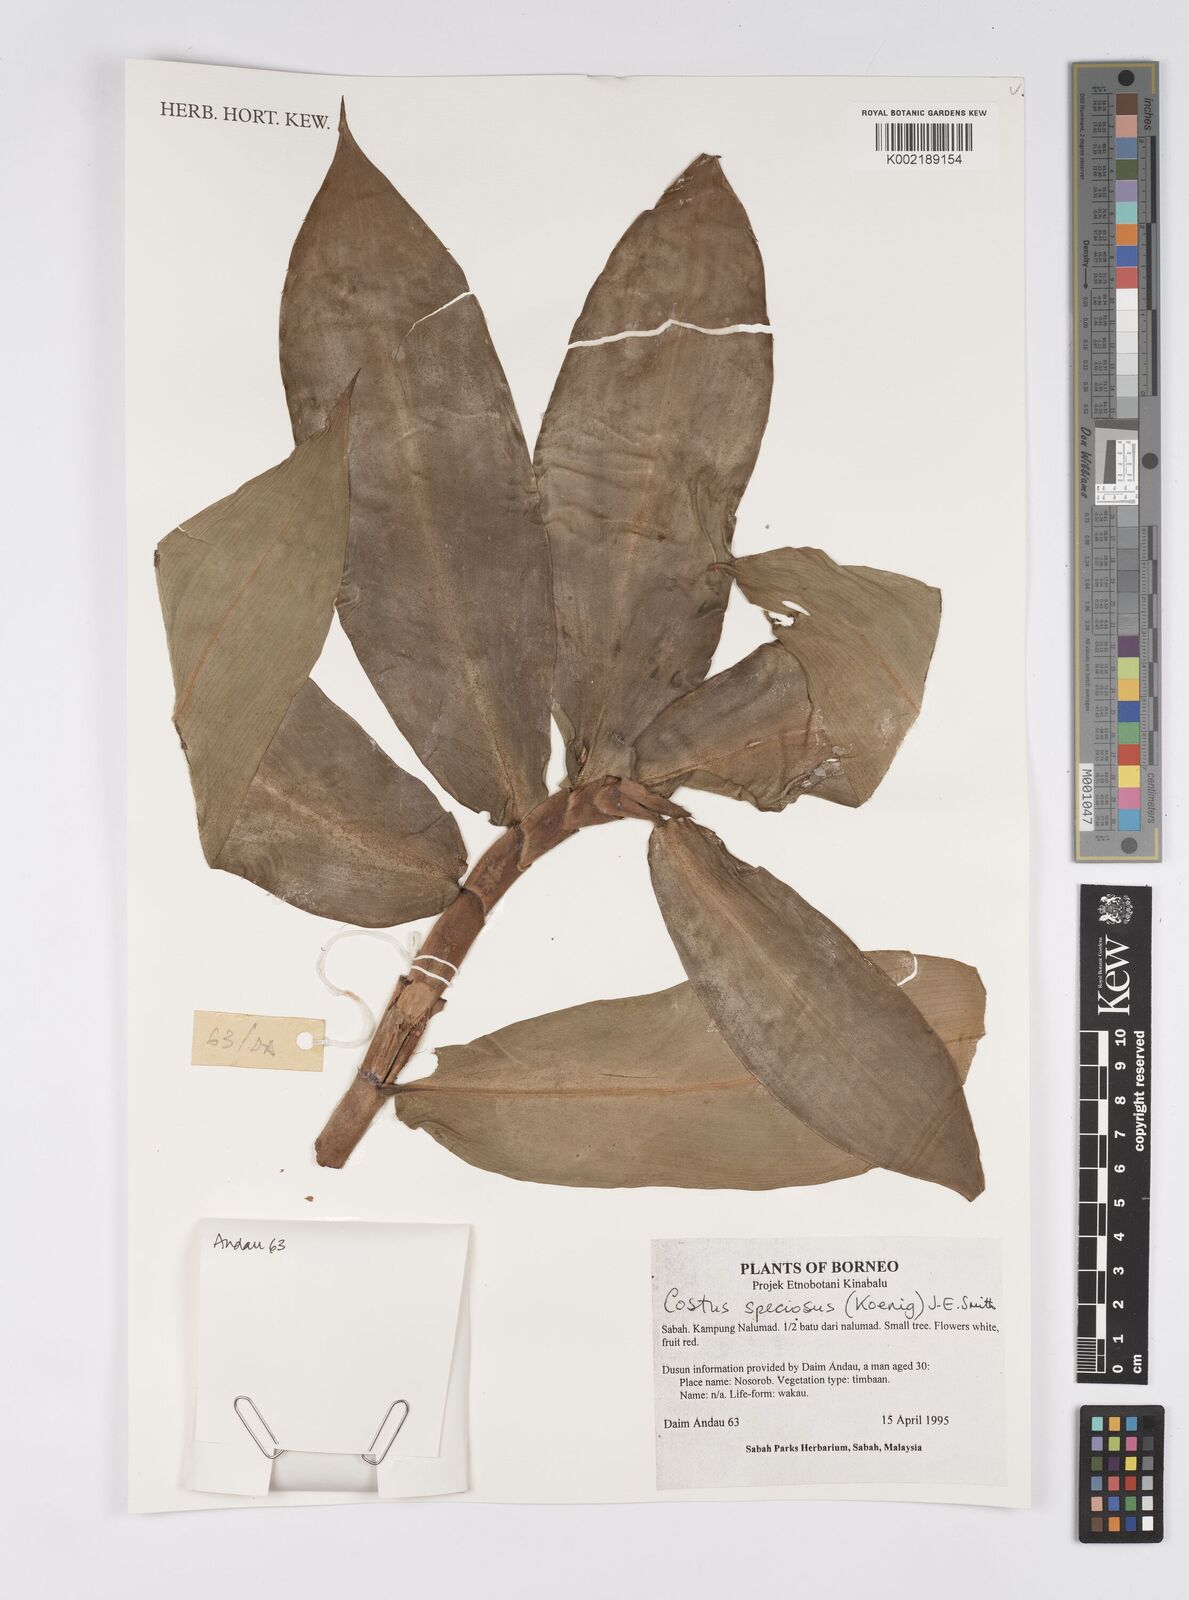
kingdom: Plantae
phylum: Tracheophyta
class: Liliopsida
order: Zingiberales
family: Costaceae
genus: Hellenia
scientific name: Hellenia speciosa
